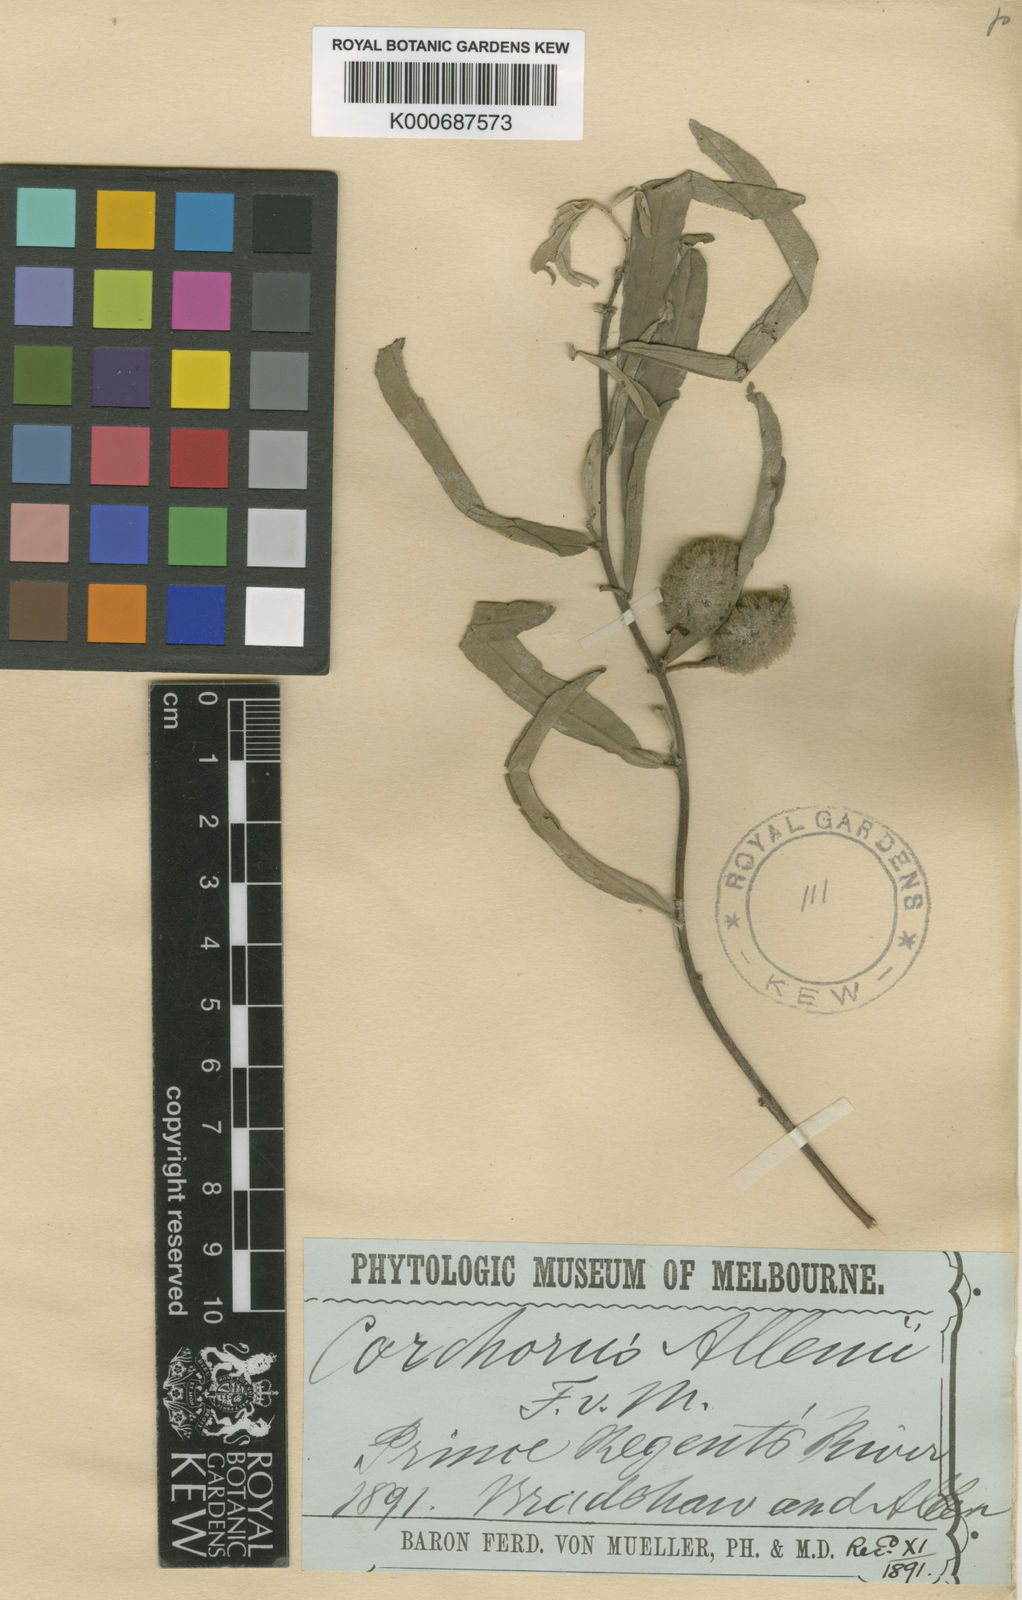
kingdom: Plantae
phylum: Tracheophyta
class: Magnoliopsida
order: Malvales
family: Malvaceae
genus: Corchorus
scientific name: Corchorus
